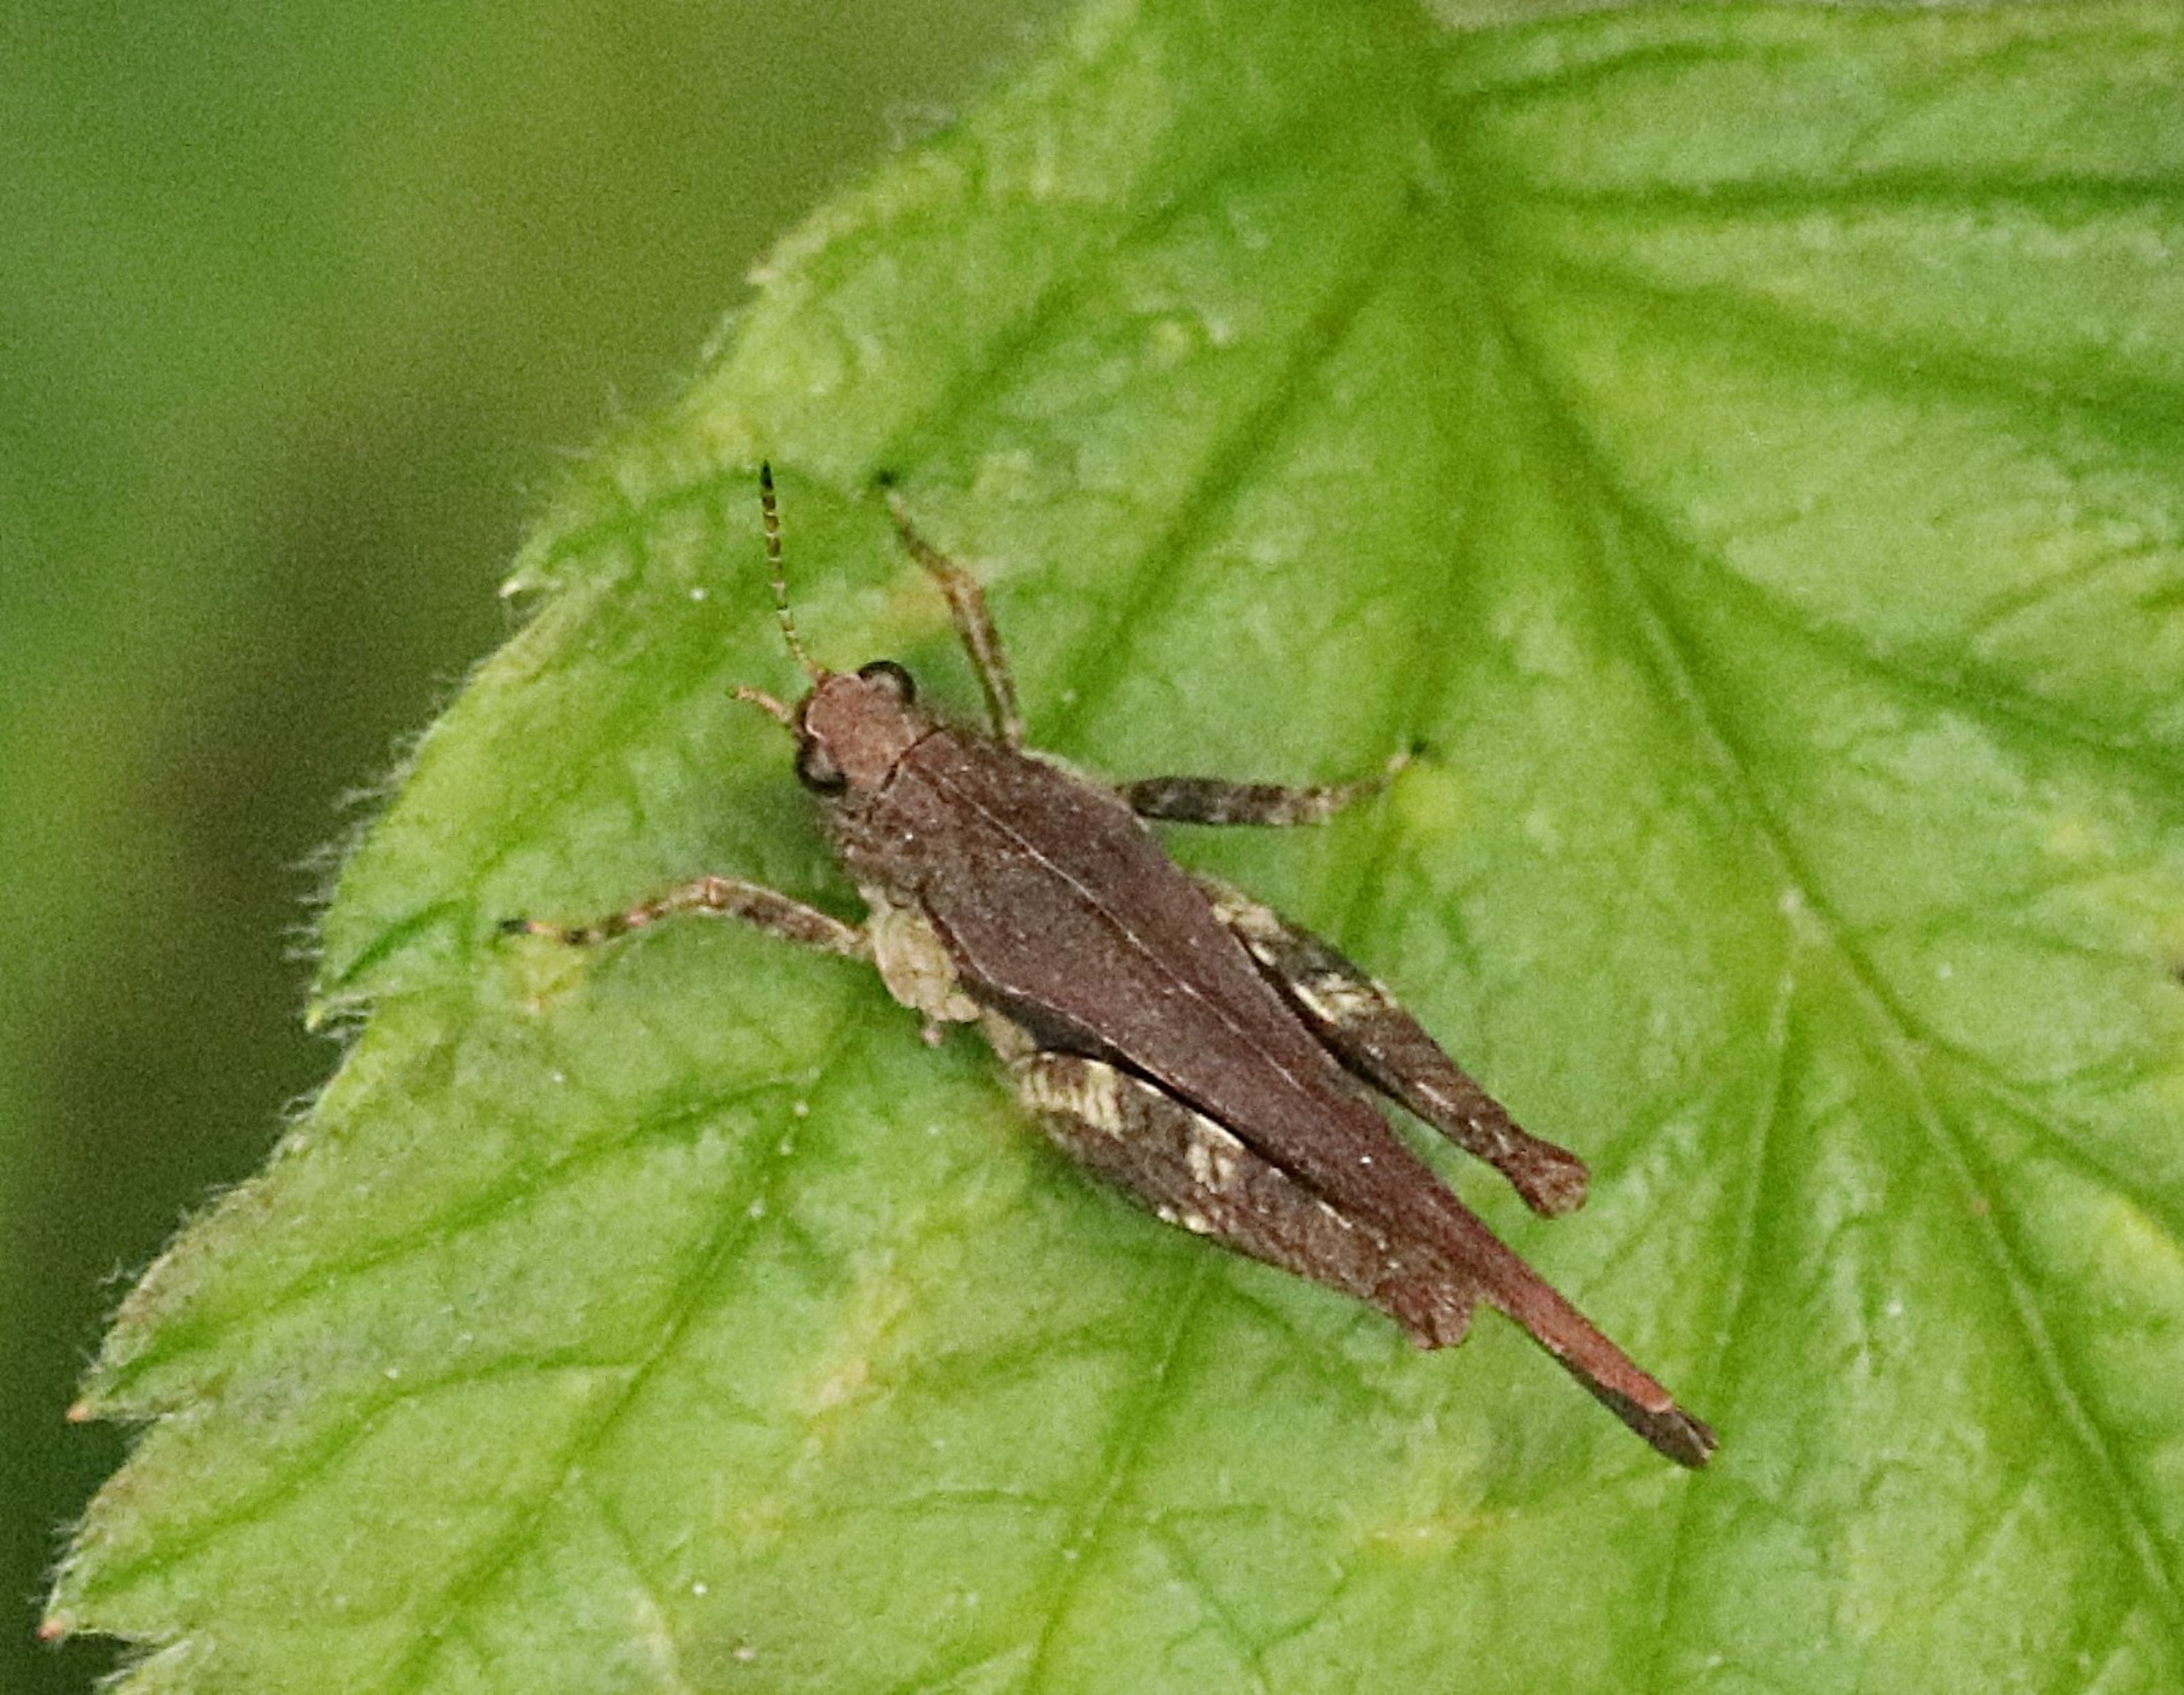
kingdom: Animalia
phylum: Arthropoda
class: Insecta
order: Orthoptera
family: Tetrigidae
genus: Tetrix
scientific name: Tetrix subulata
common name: Sump-torngræshoppe
